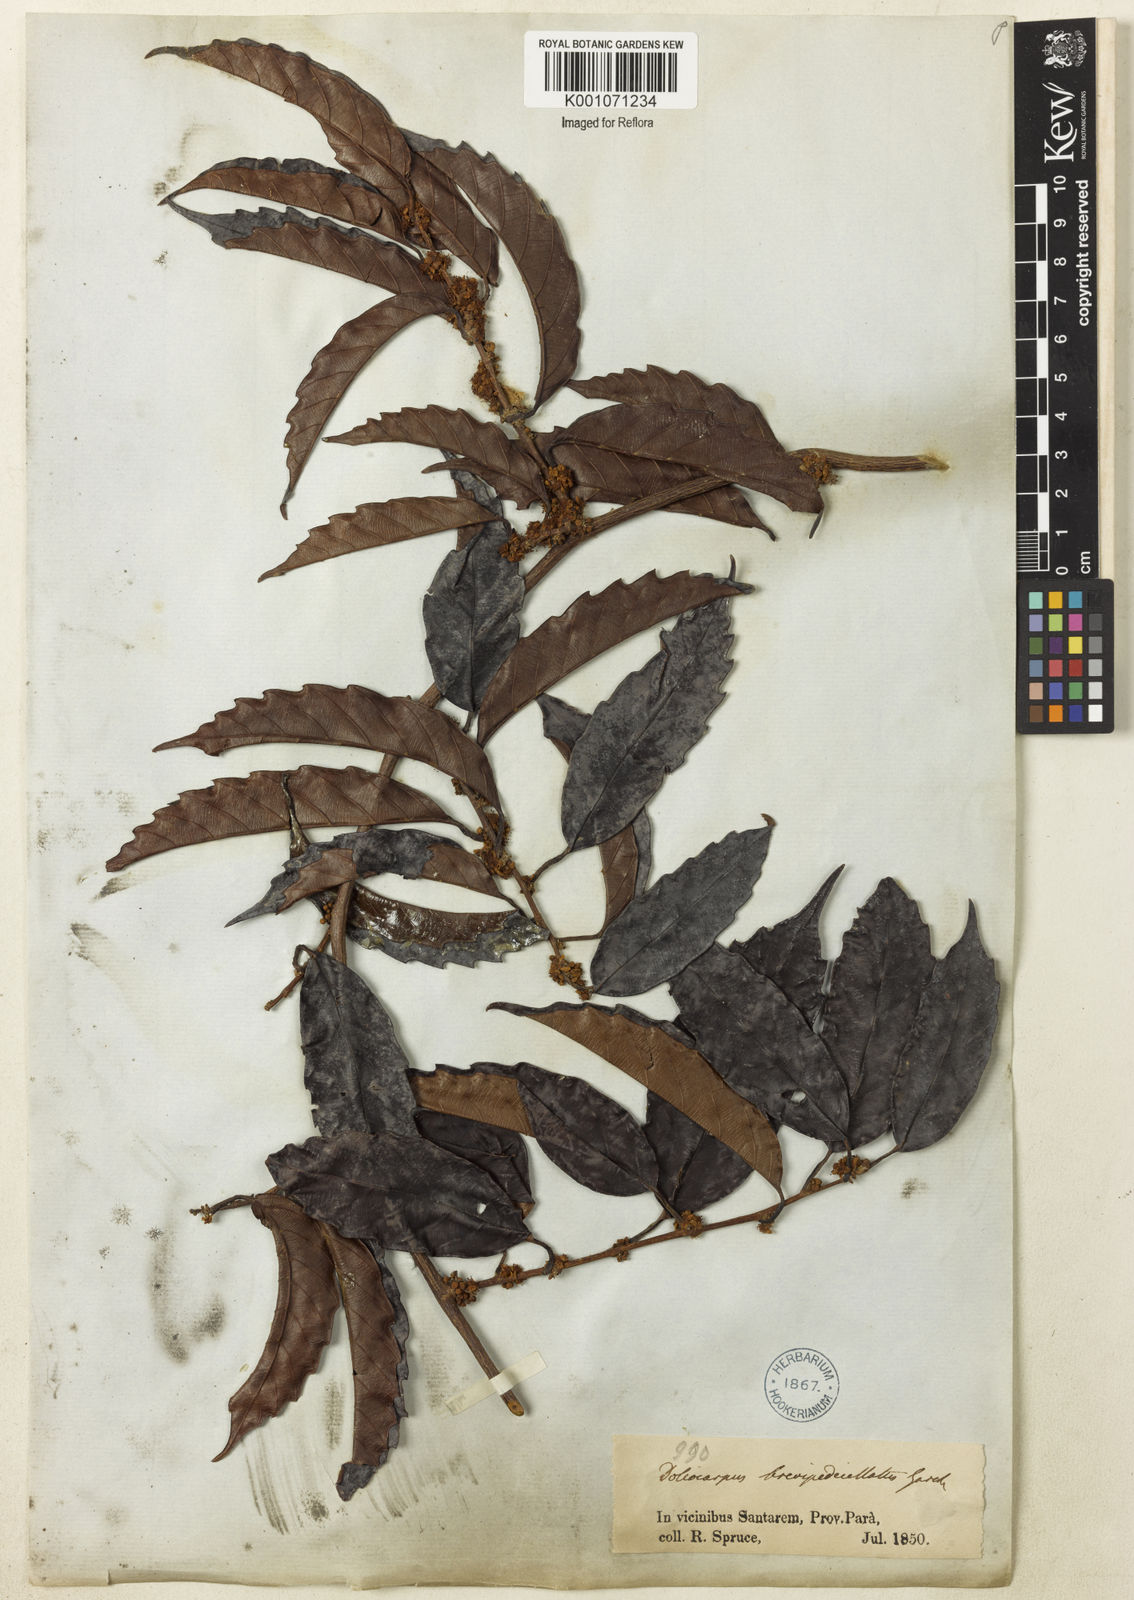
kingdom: Plantae
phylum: Tracheophyta
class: Magnoliopsida
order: Dilleniales
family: Dilleniaceae
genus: Doliocarpus
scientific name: Doliocarpus brevipedicellatus
